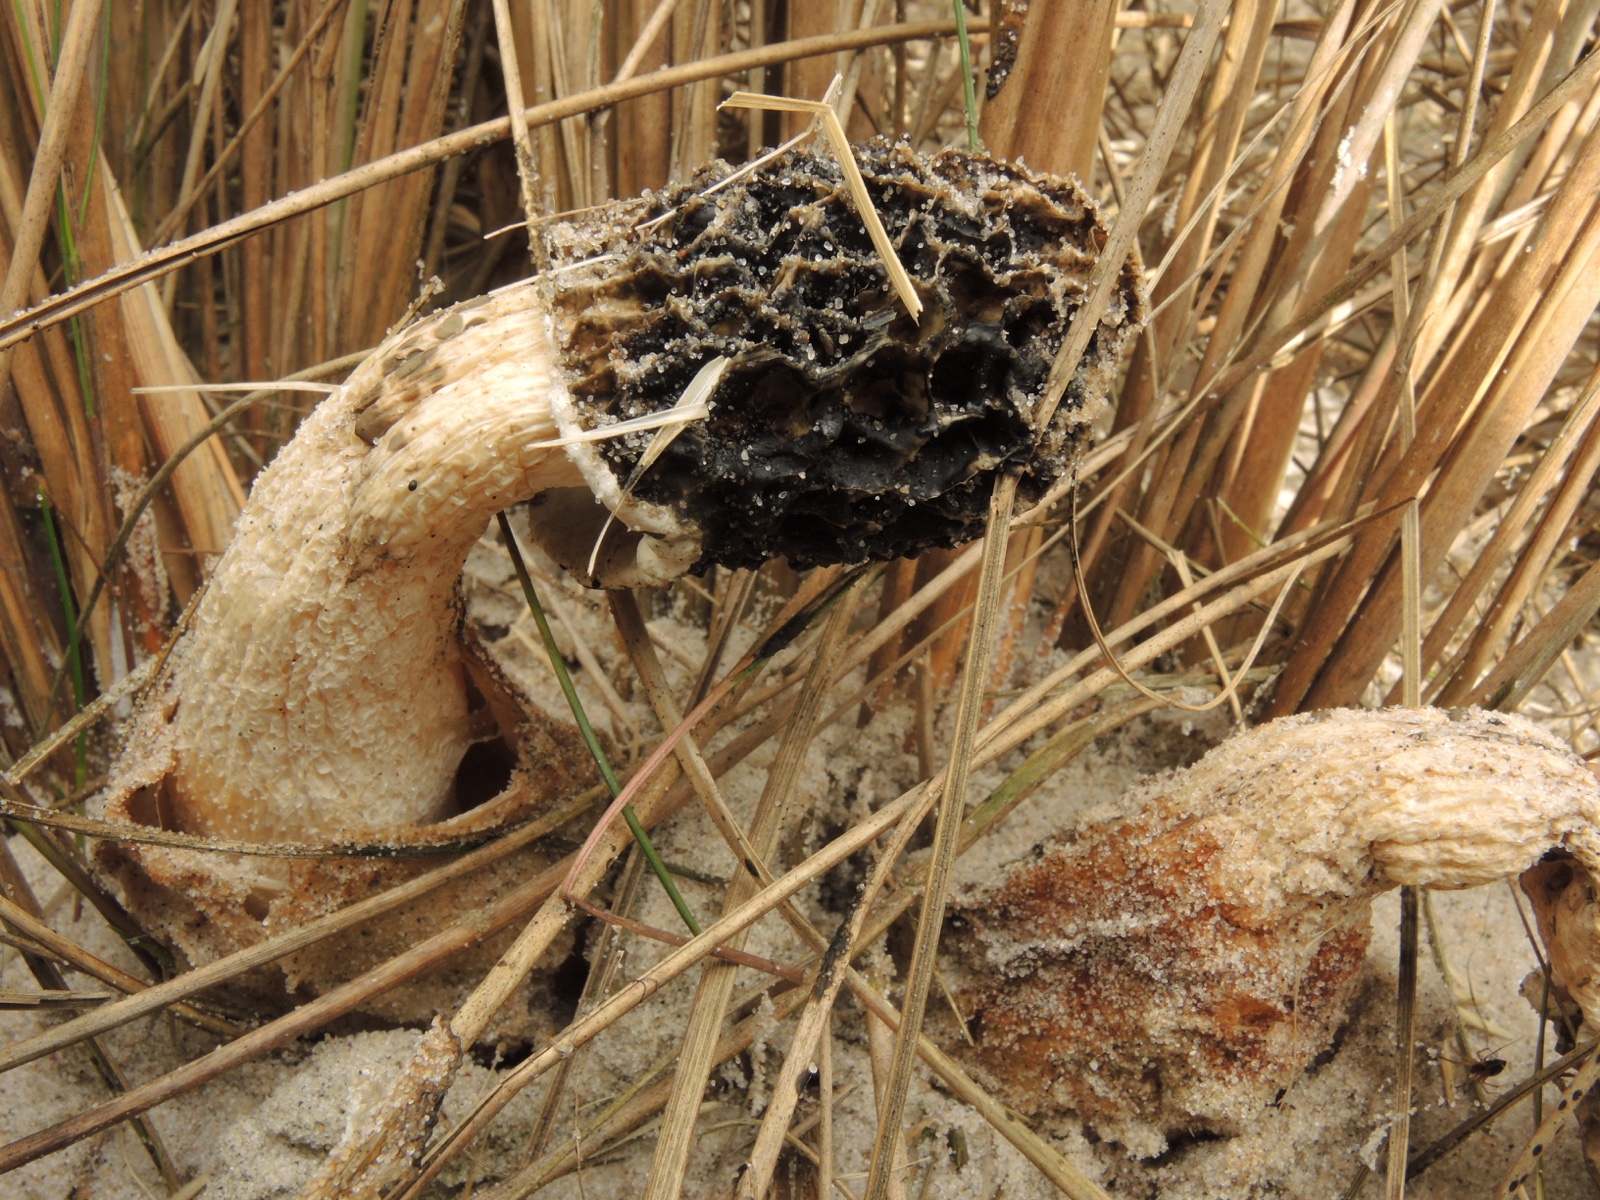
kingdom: Fungi
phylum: Basidiomycota
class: Agaricomycetes
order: Phallales
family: Phallaceae
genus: Phallus
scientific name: Phallus hadriani
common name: sand-stinksvamp
